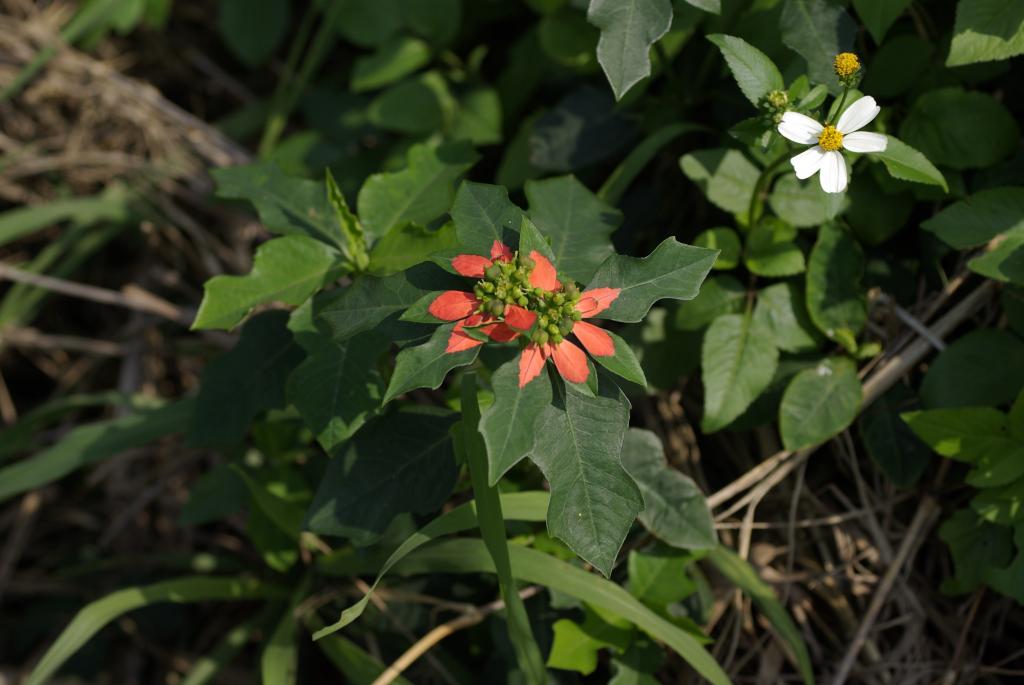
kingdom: Plantae
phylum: Tracheophyta
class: Magnoliopsida
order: Malpighiales
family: Euphorbiaceae
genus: Euphorbia
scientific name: Euphorbia heterophylla
